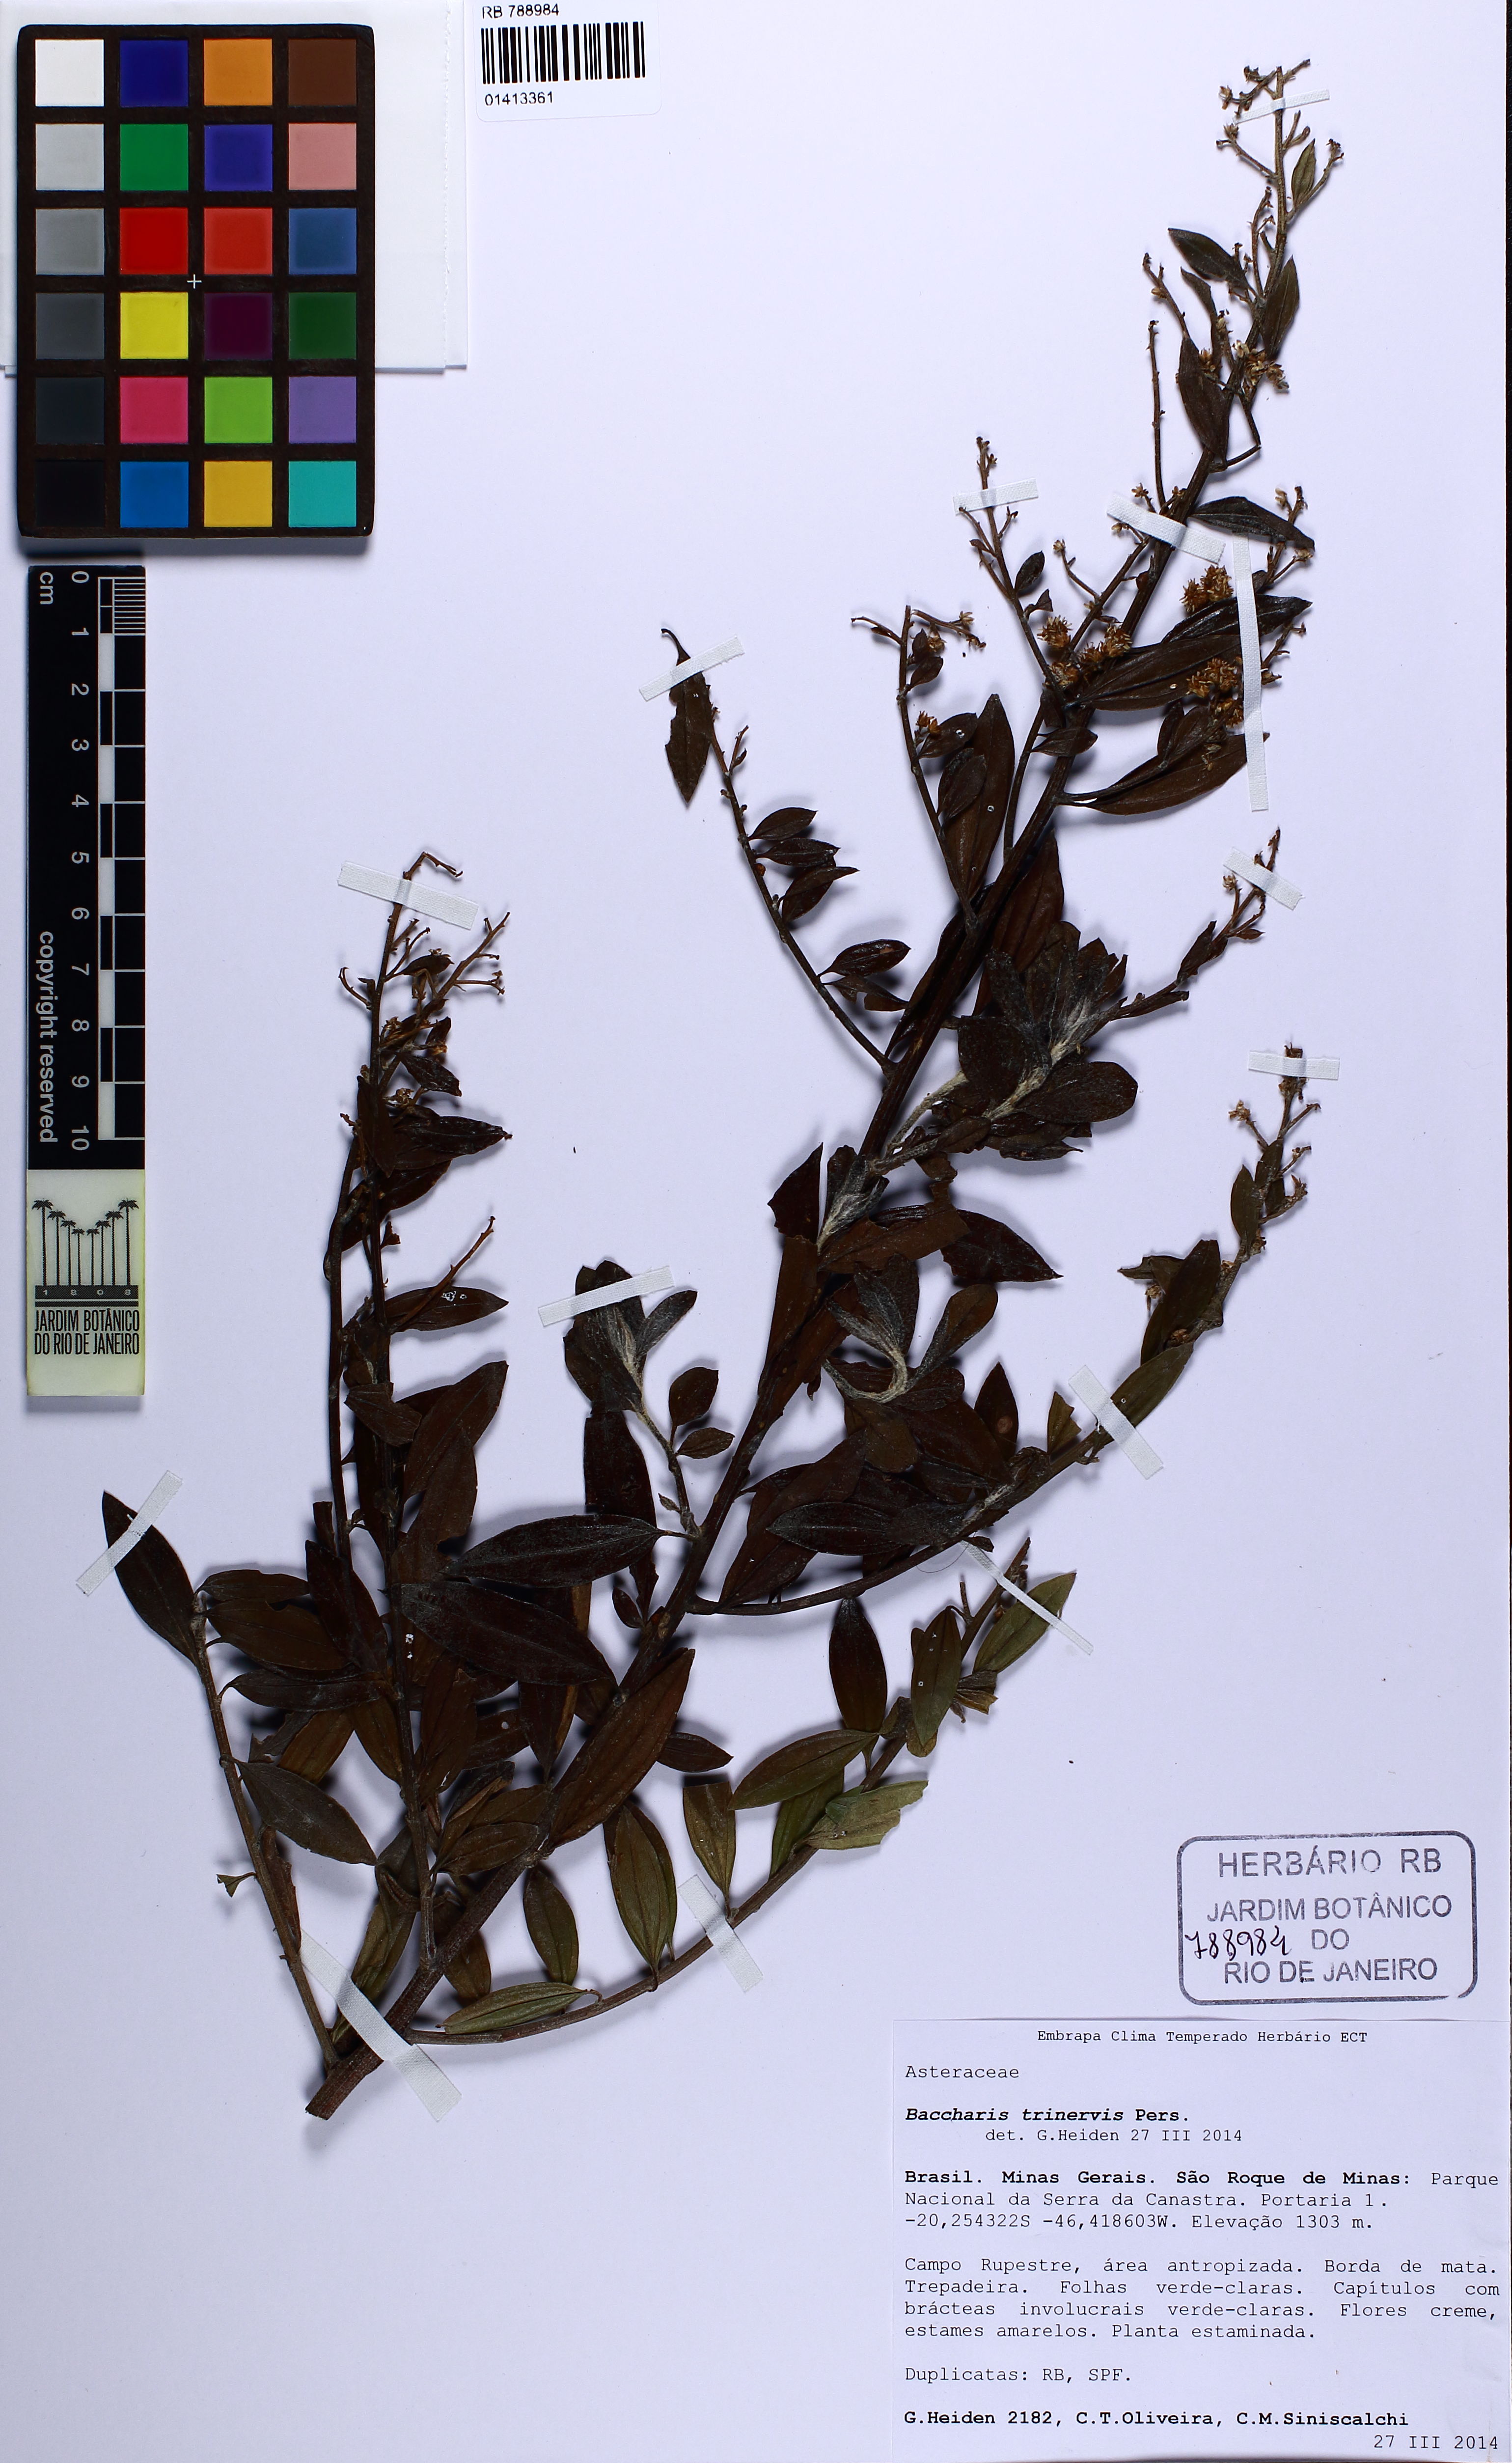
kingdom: Plantae
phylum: Tracheophyta
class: Magnoliopsida
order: Asterales
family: Asteraceae
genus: Baccharis
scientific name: Baccharis trinervis
